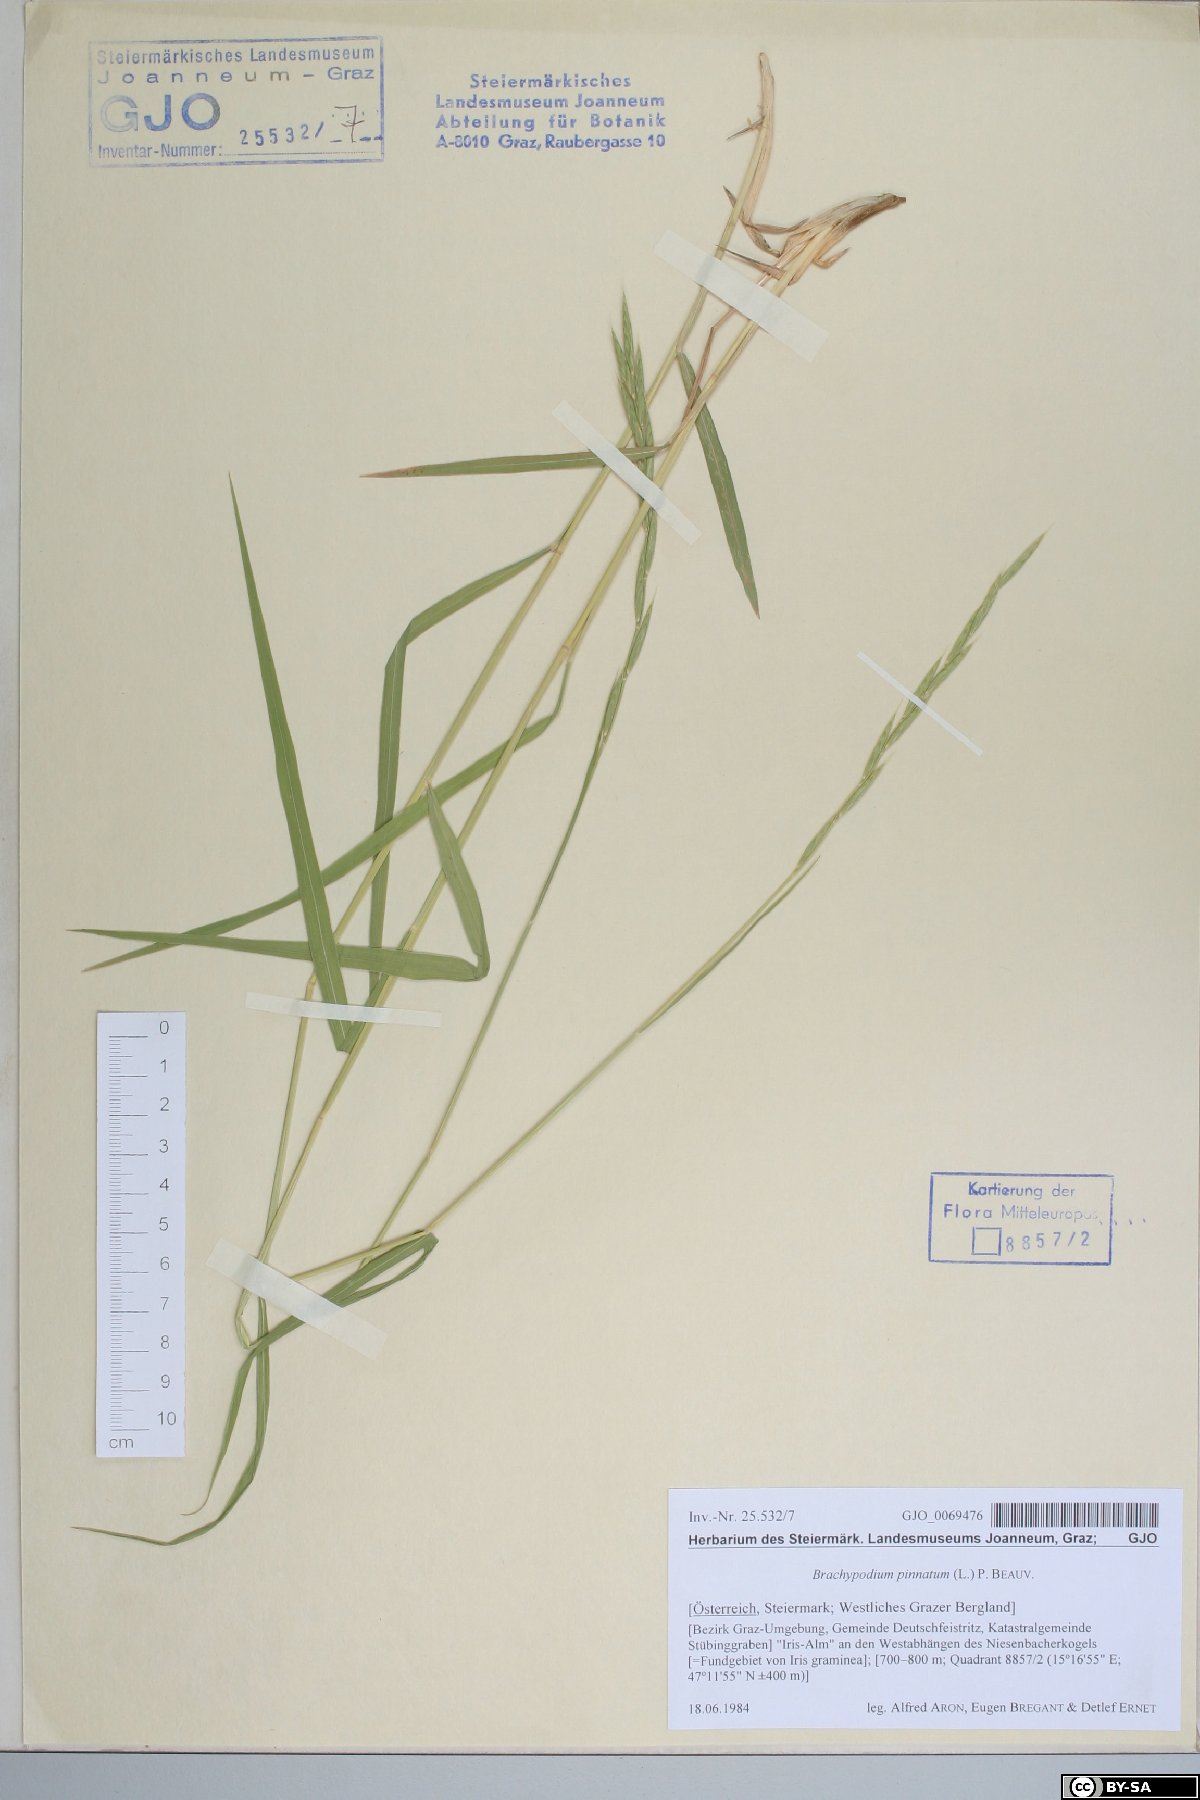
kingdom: Plantae
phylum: Tracheophyta
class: Liliopsida
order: Poales
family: Poaceae
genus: Brachypodium
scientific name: Brachypodium pinnatum
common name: Tor grass
